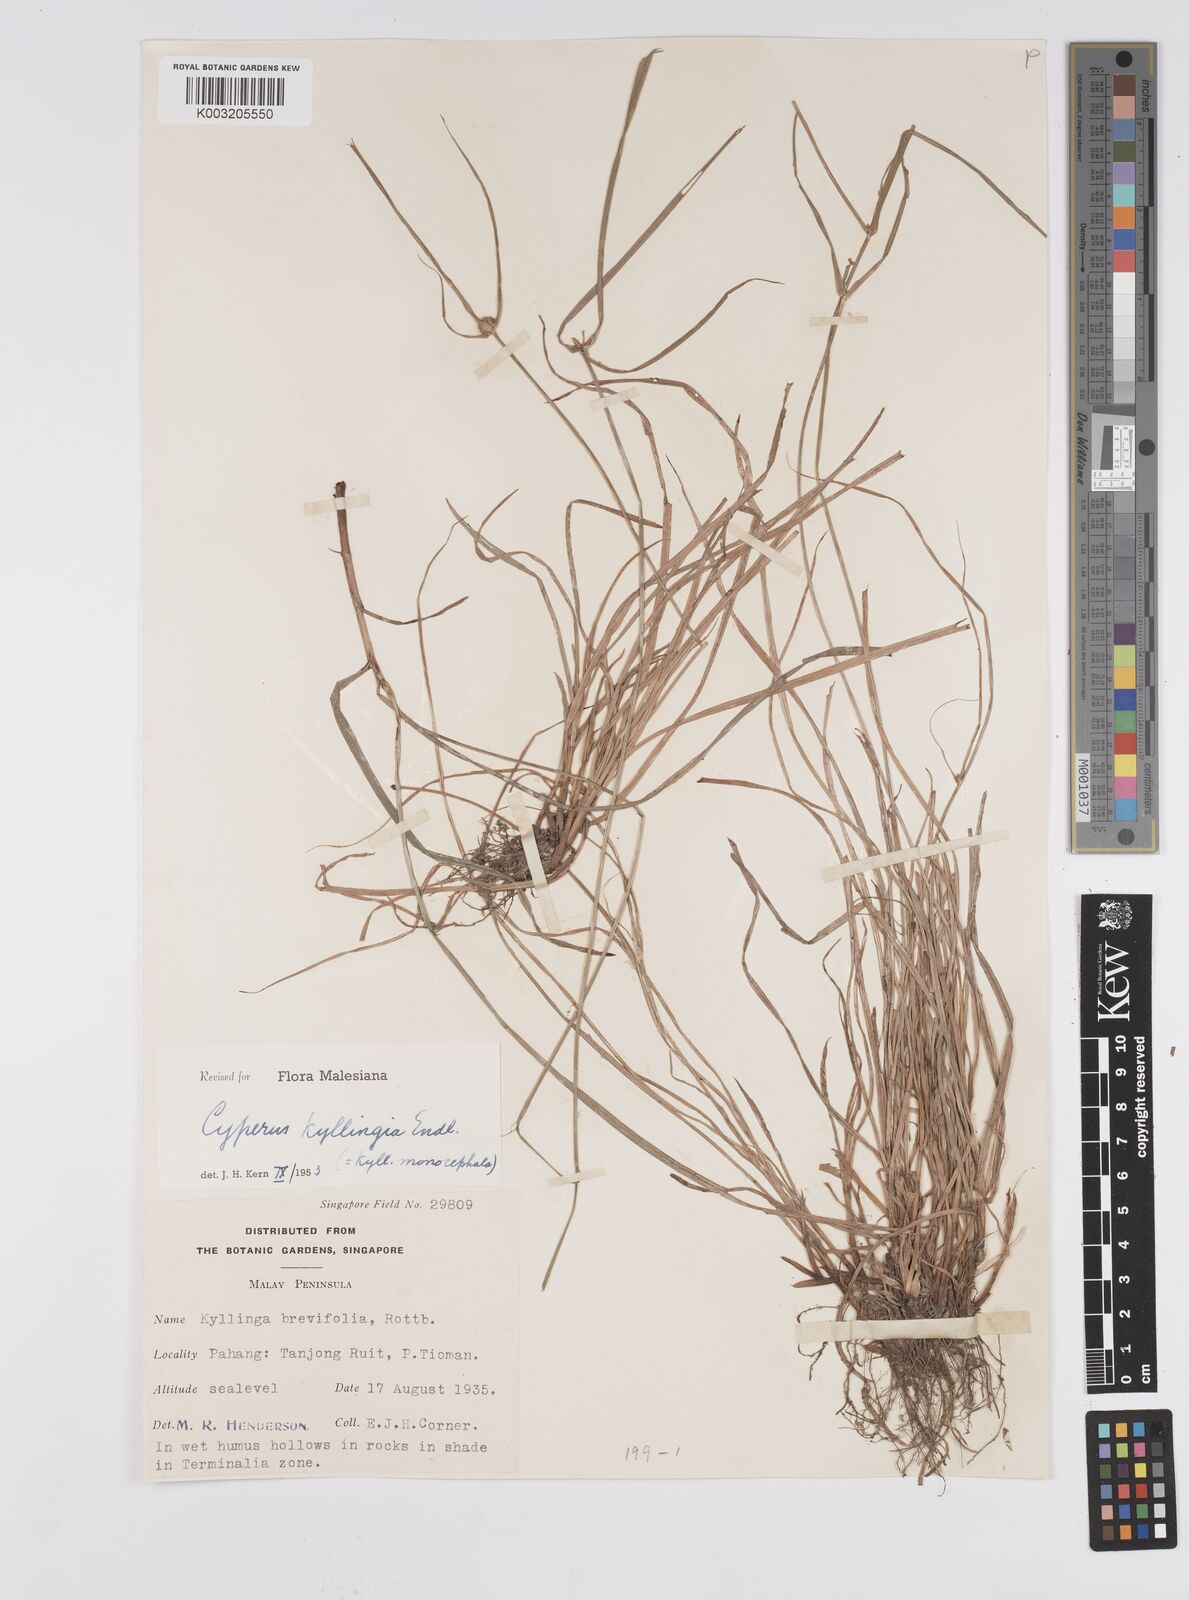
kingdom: Plantae
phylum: Tracheophyta
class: Liliopsida
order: Poales
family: Cyperaceae
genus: Cyperus
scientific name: Cyperus nemoralis
